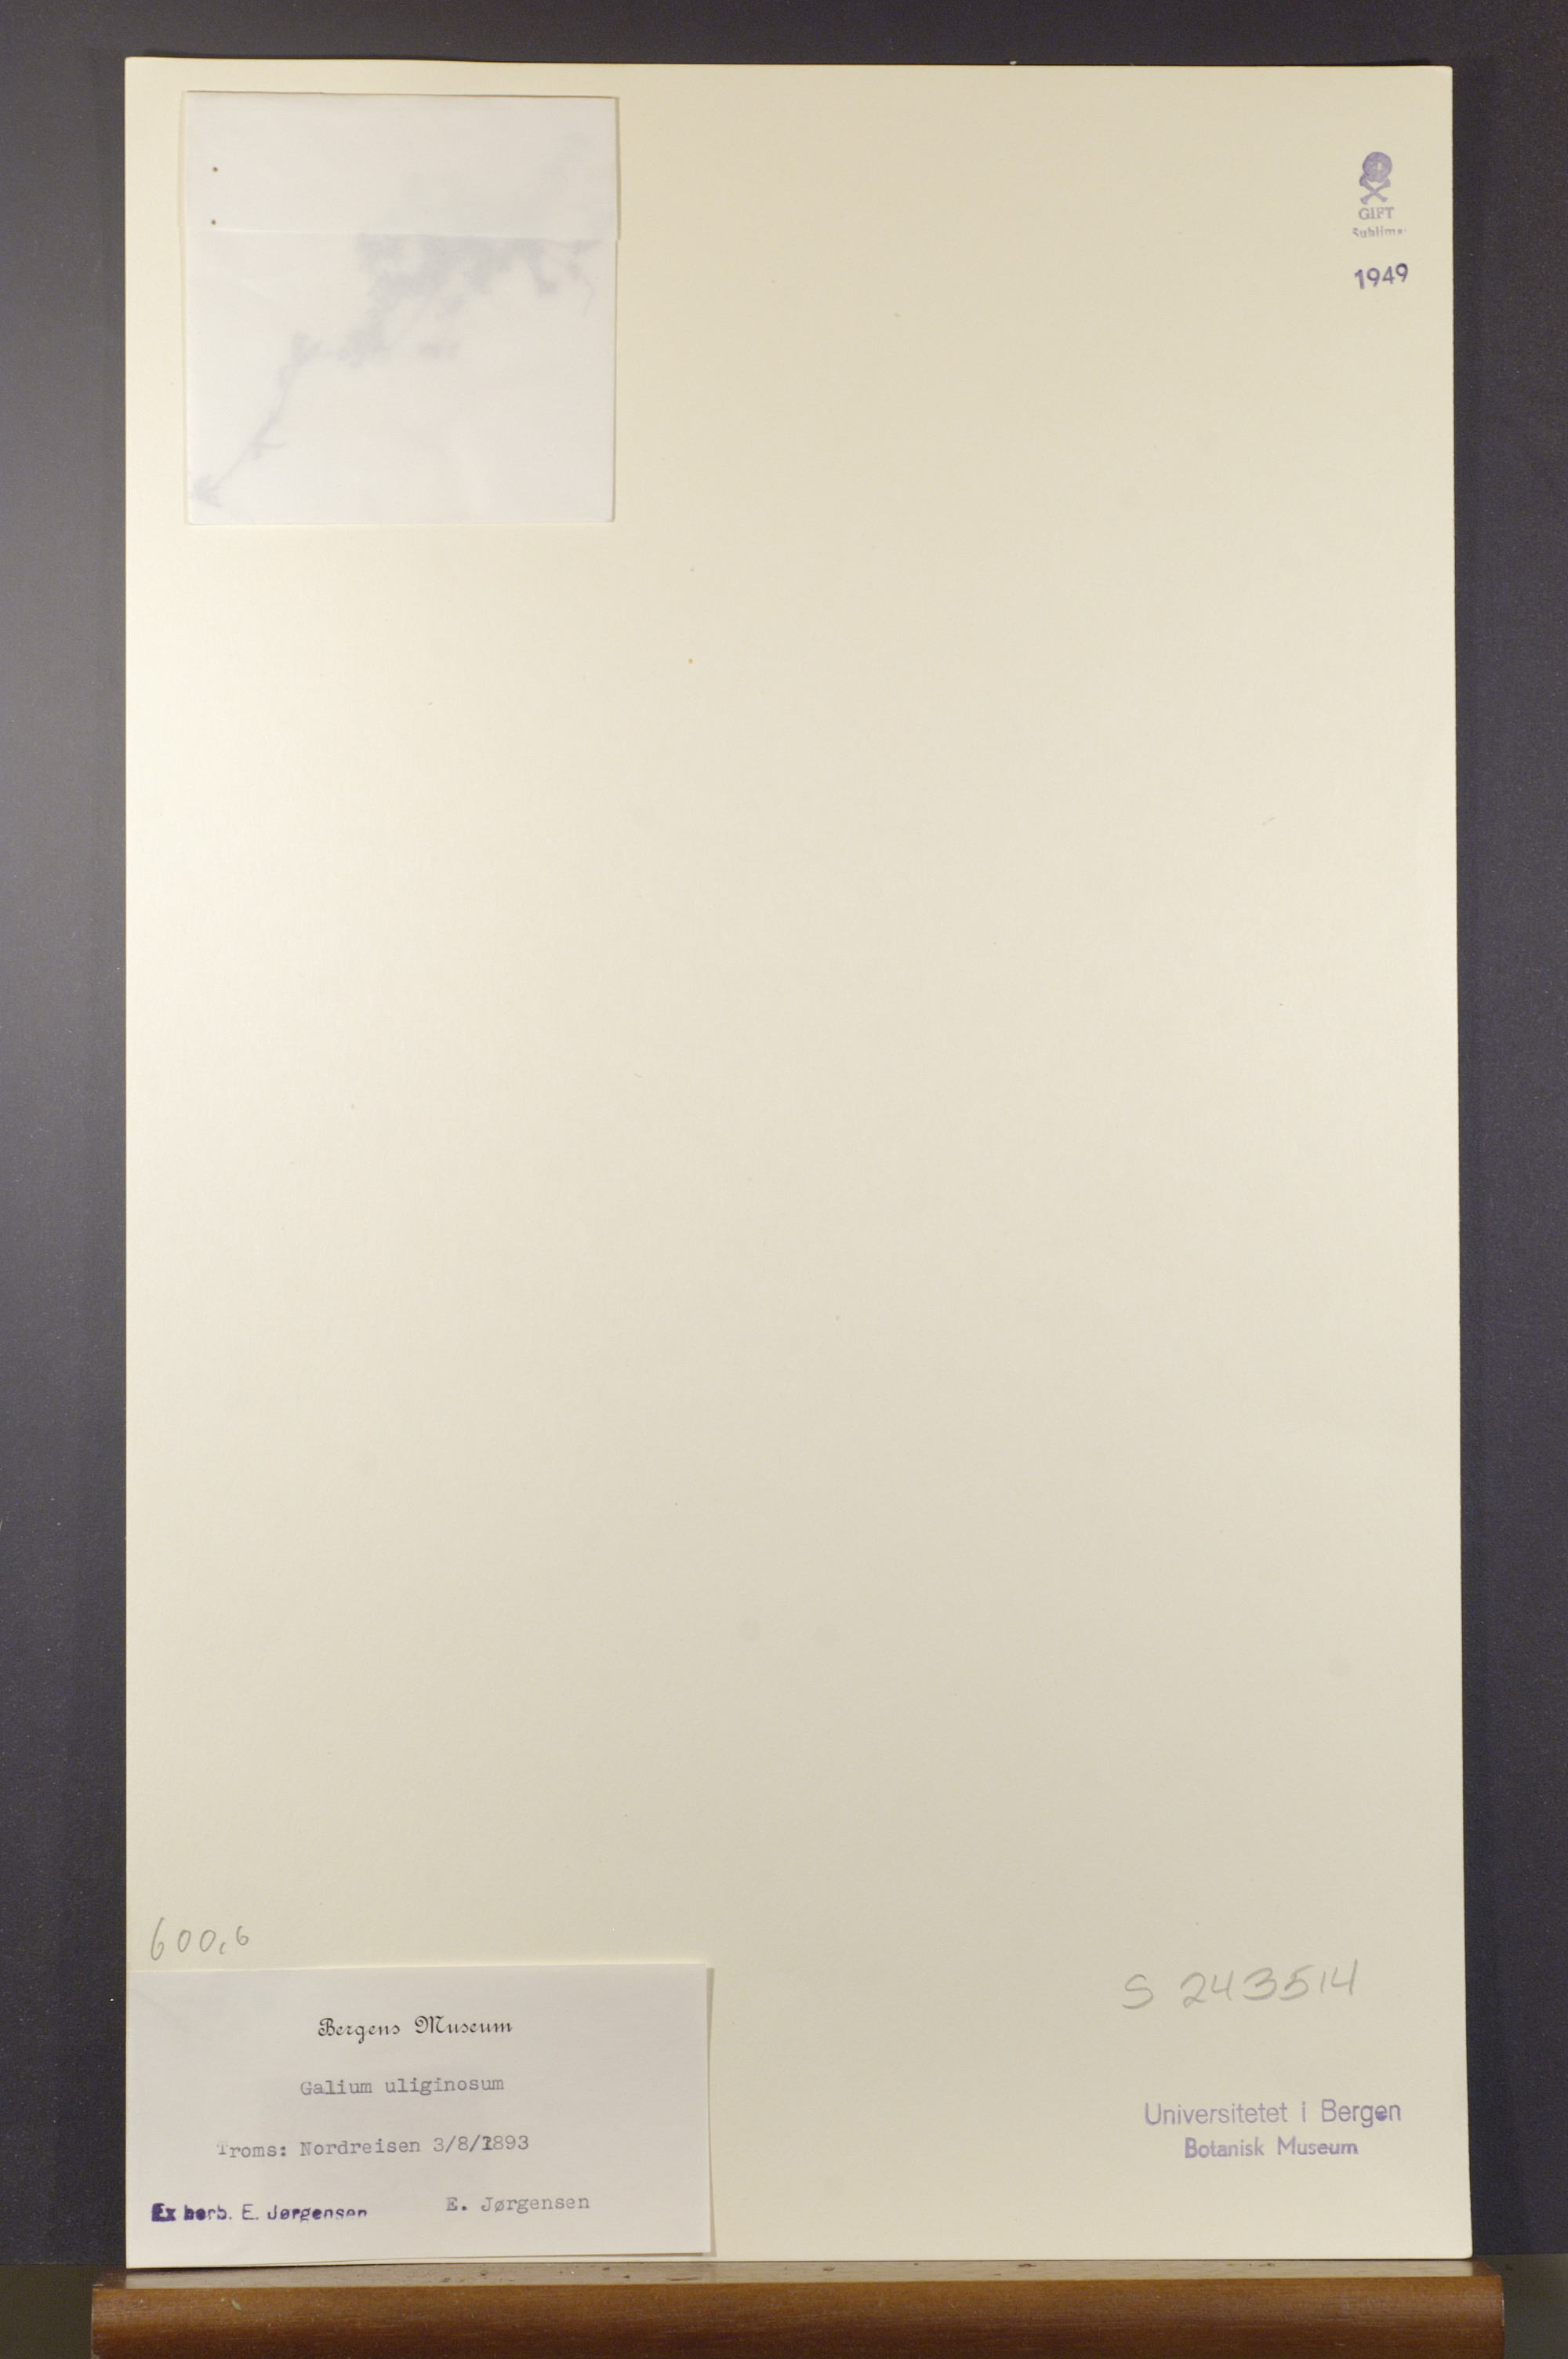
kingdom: Plantae
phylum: Tracheophyta
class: Magnoliopsida
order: Gentianales
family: Rubiaceae
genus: Galium
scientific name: Galium uliginosum
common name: Fen bedstraw
